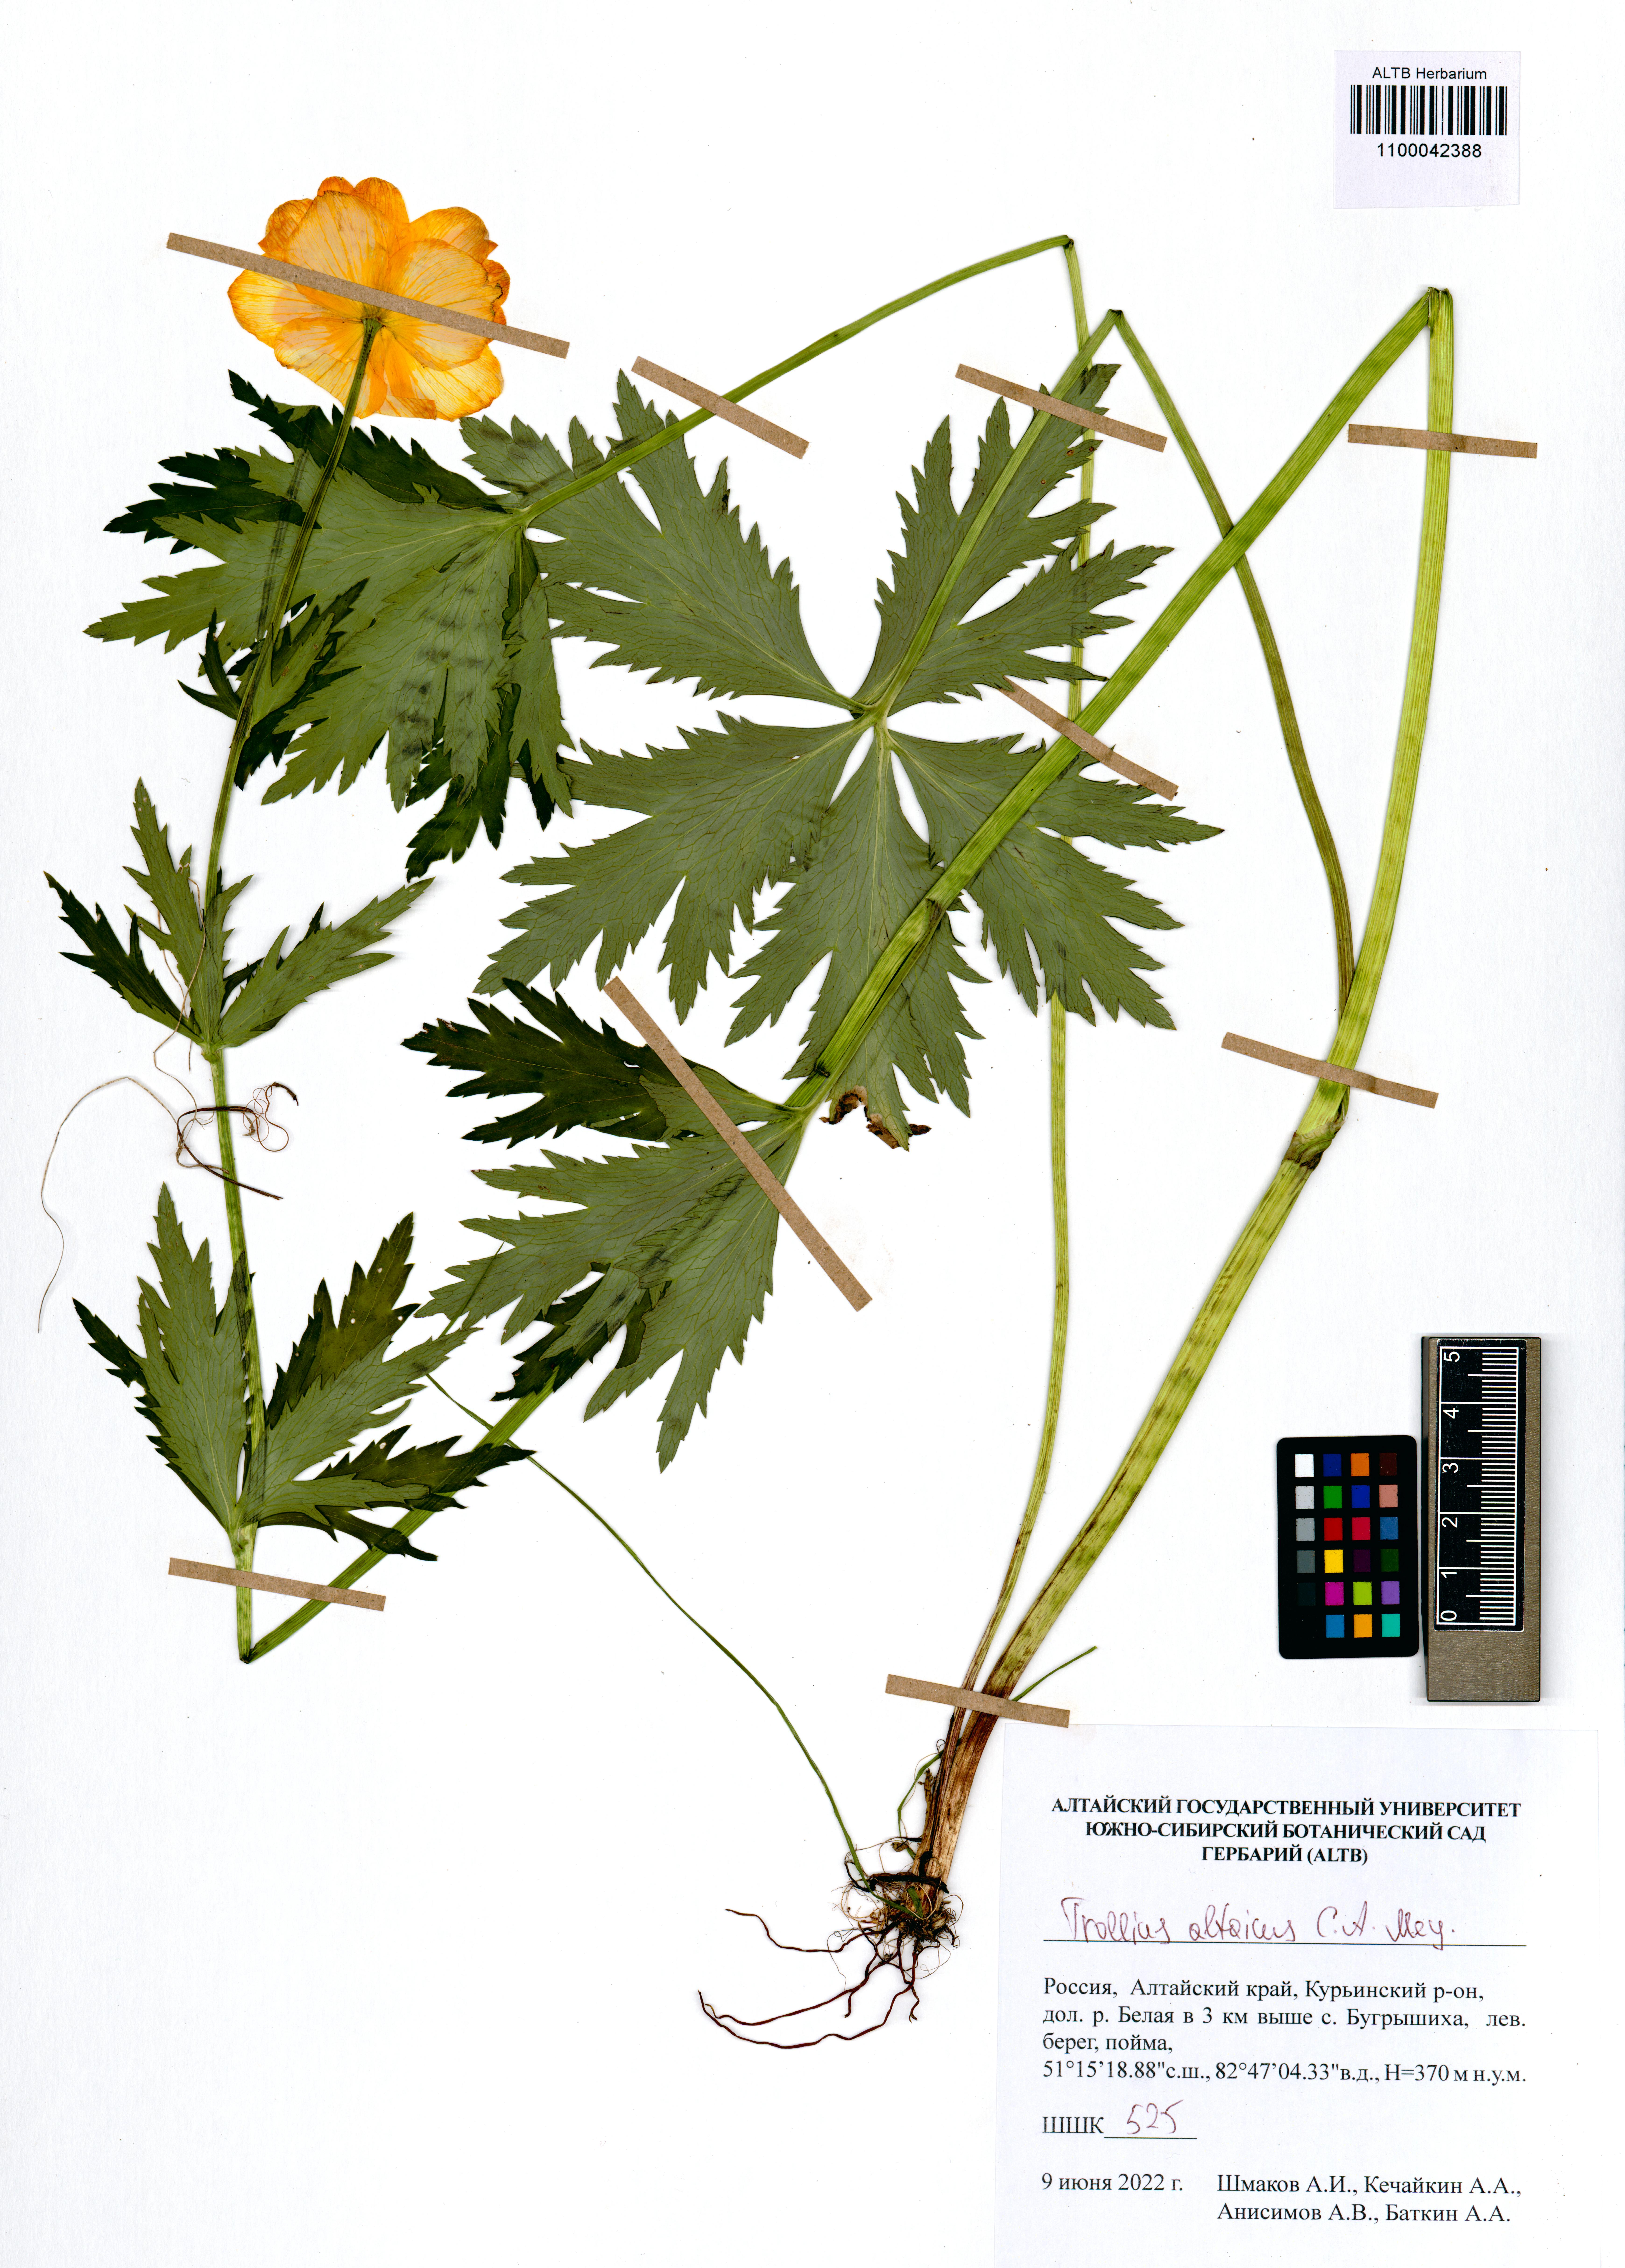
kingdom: Plantae
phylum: Tracheophyta
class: Magnoliopsida
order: Ranunculales
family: Ranunculaceae
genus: Trollius
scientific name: Trollius altaicus
